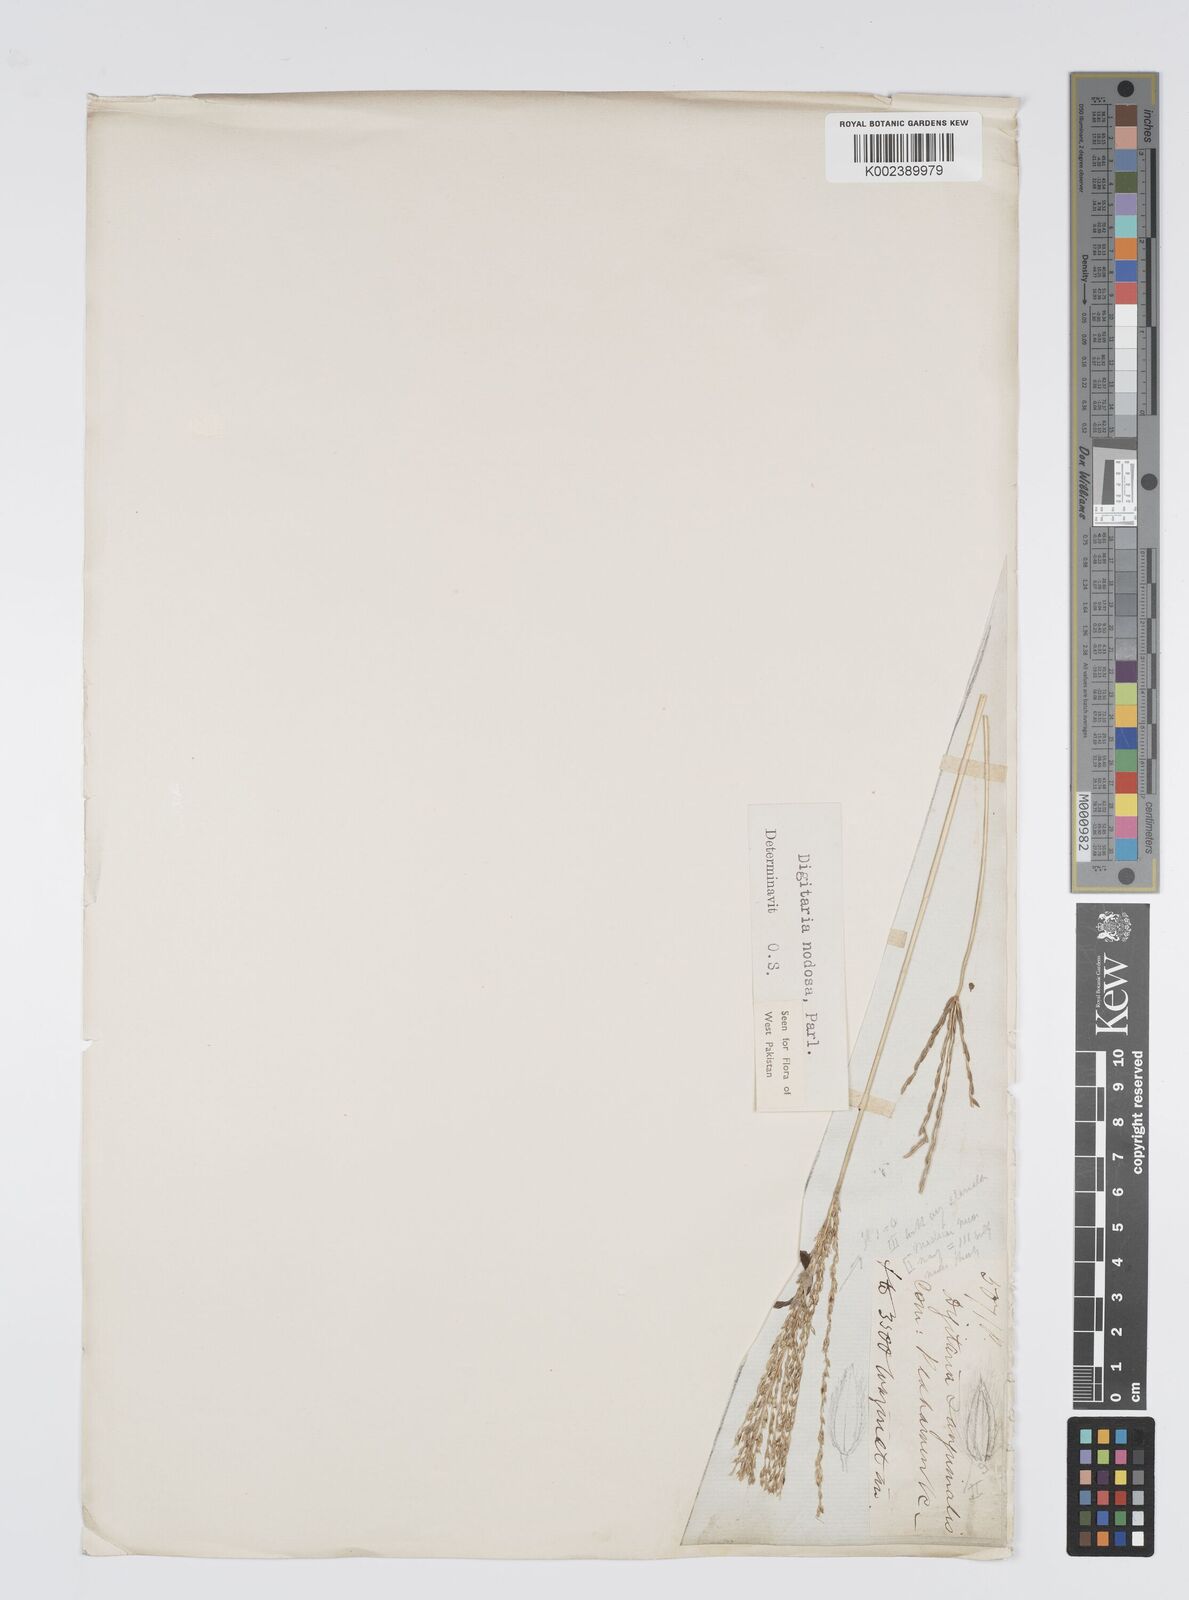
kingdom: Plantae
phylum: Tracheophyta
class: Liliopsida
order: Poales
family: Poaceae
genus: Digitaria
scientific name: Digitaria nodosa
